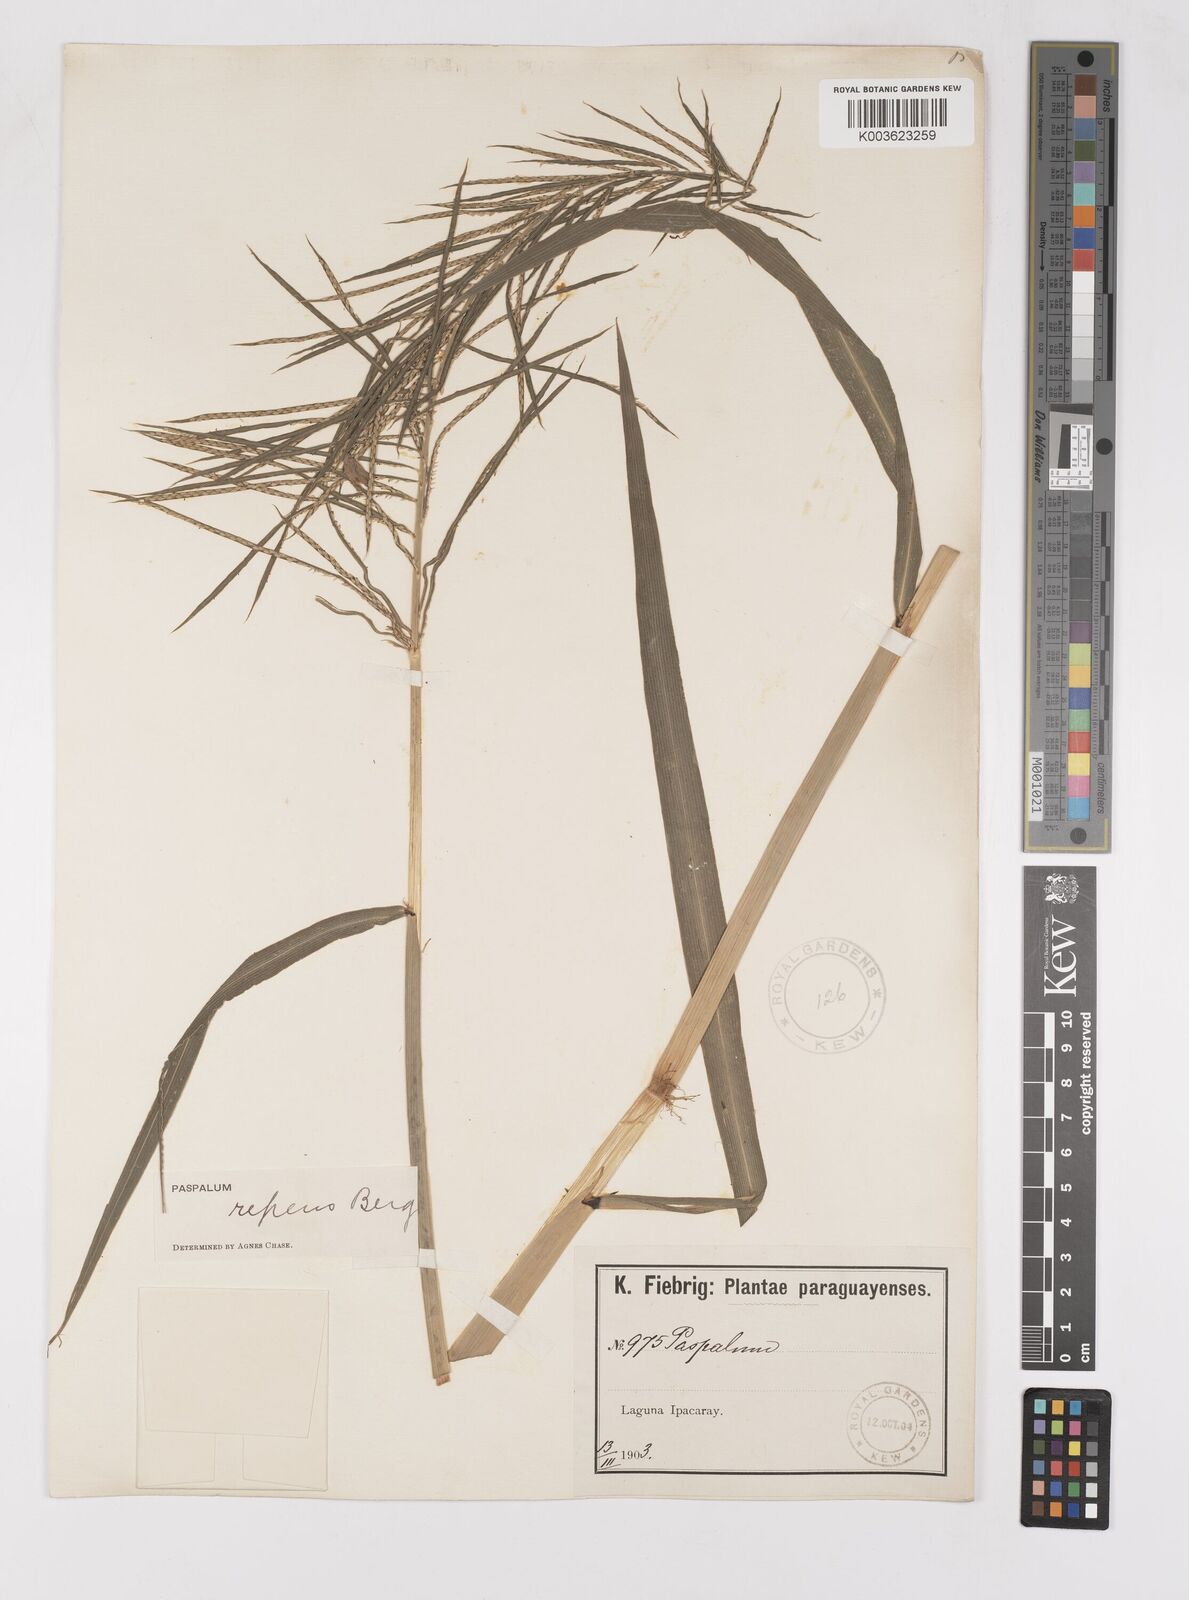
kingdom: Plantae
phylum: Tracheophyta
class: Liliopsida
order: Poales
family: Poaceae
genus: Paspalum
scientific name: Paspalum repens
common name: Water paspalum
